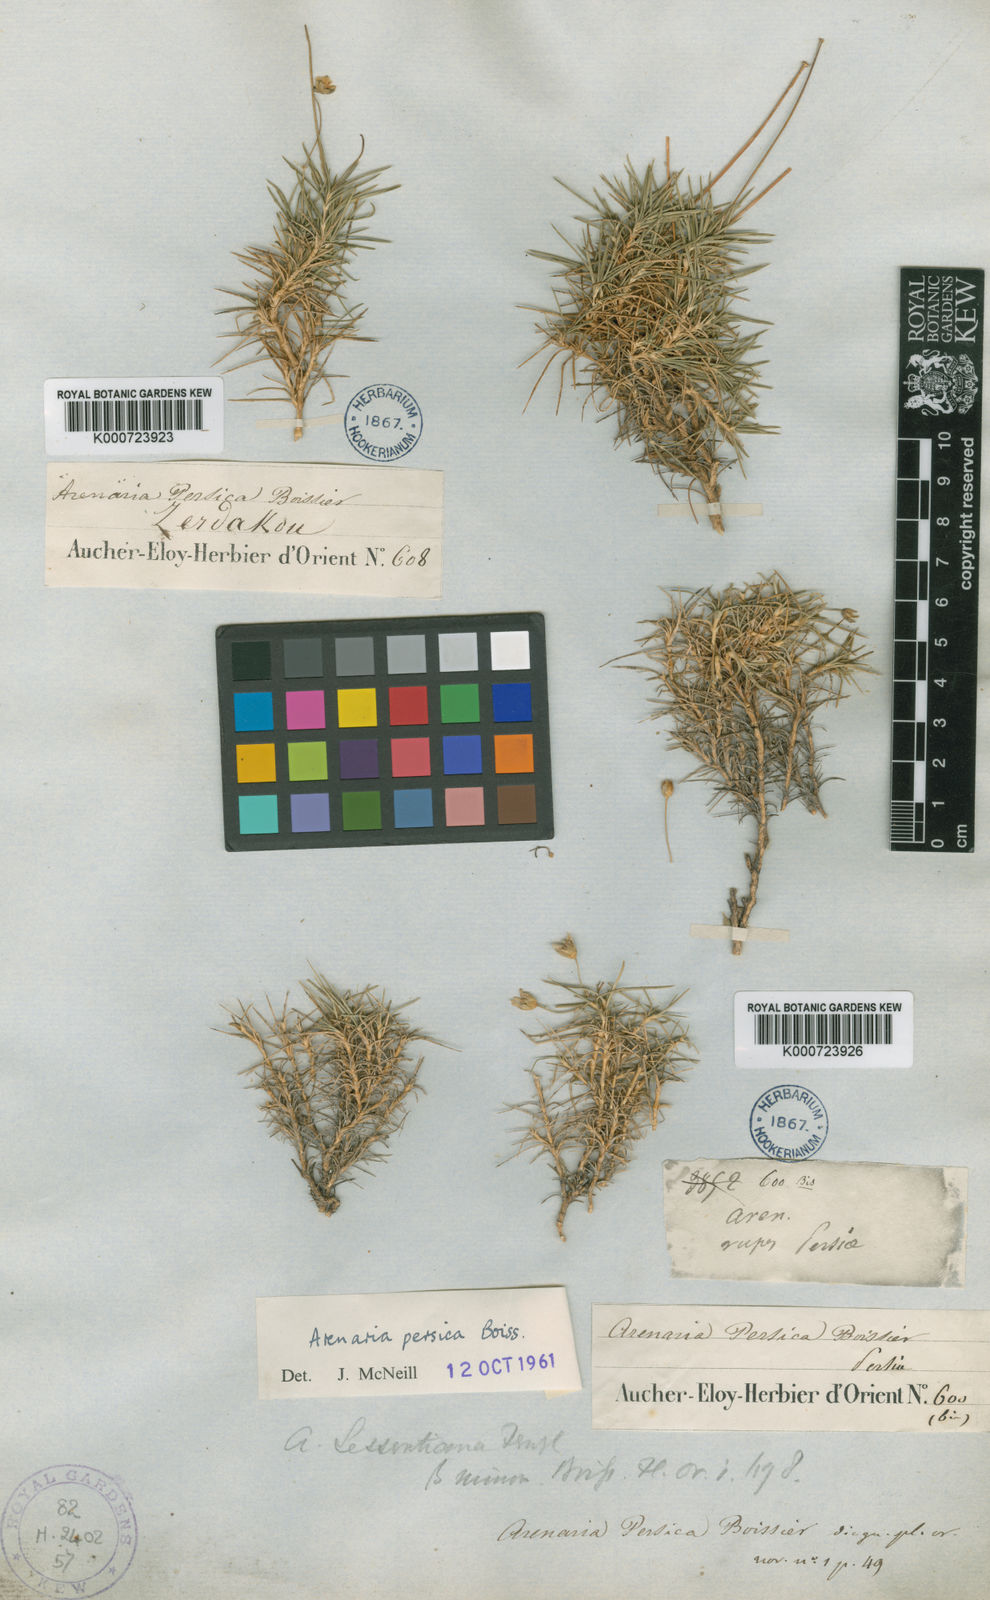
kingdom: Plantae
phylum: Tracheophyta
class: Magnoliopsida
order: Caryophyllales
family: Caryophyllaceae
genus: Eremogone
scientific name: Eremogone persica
